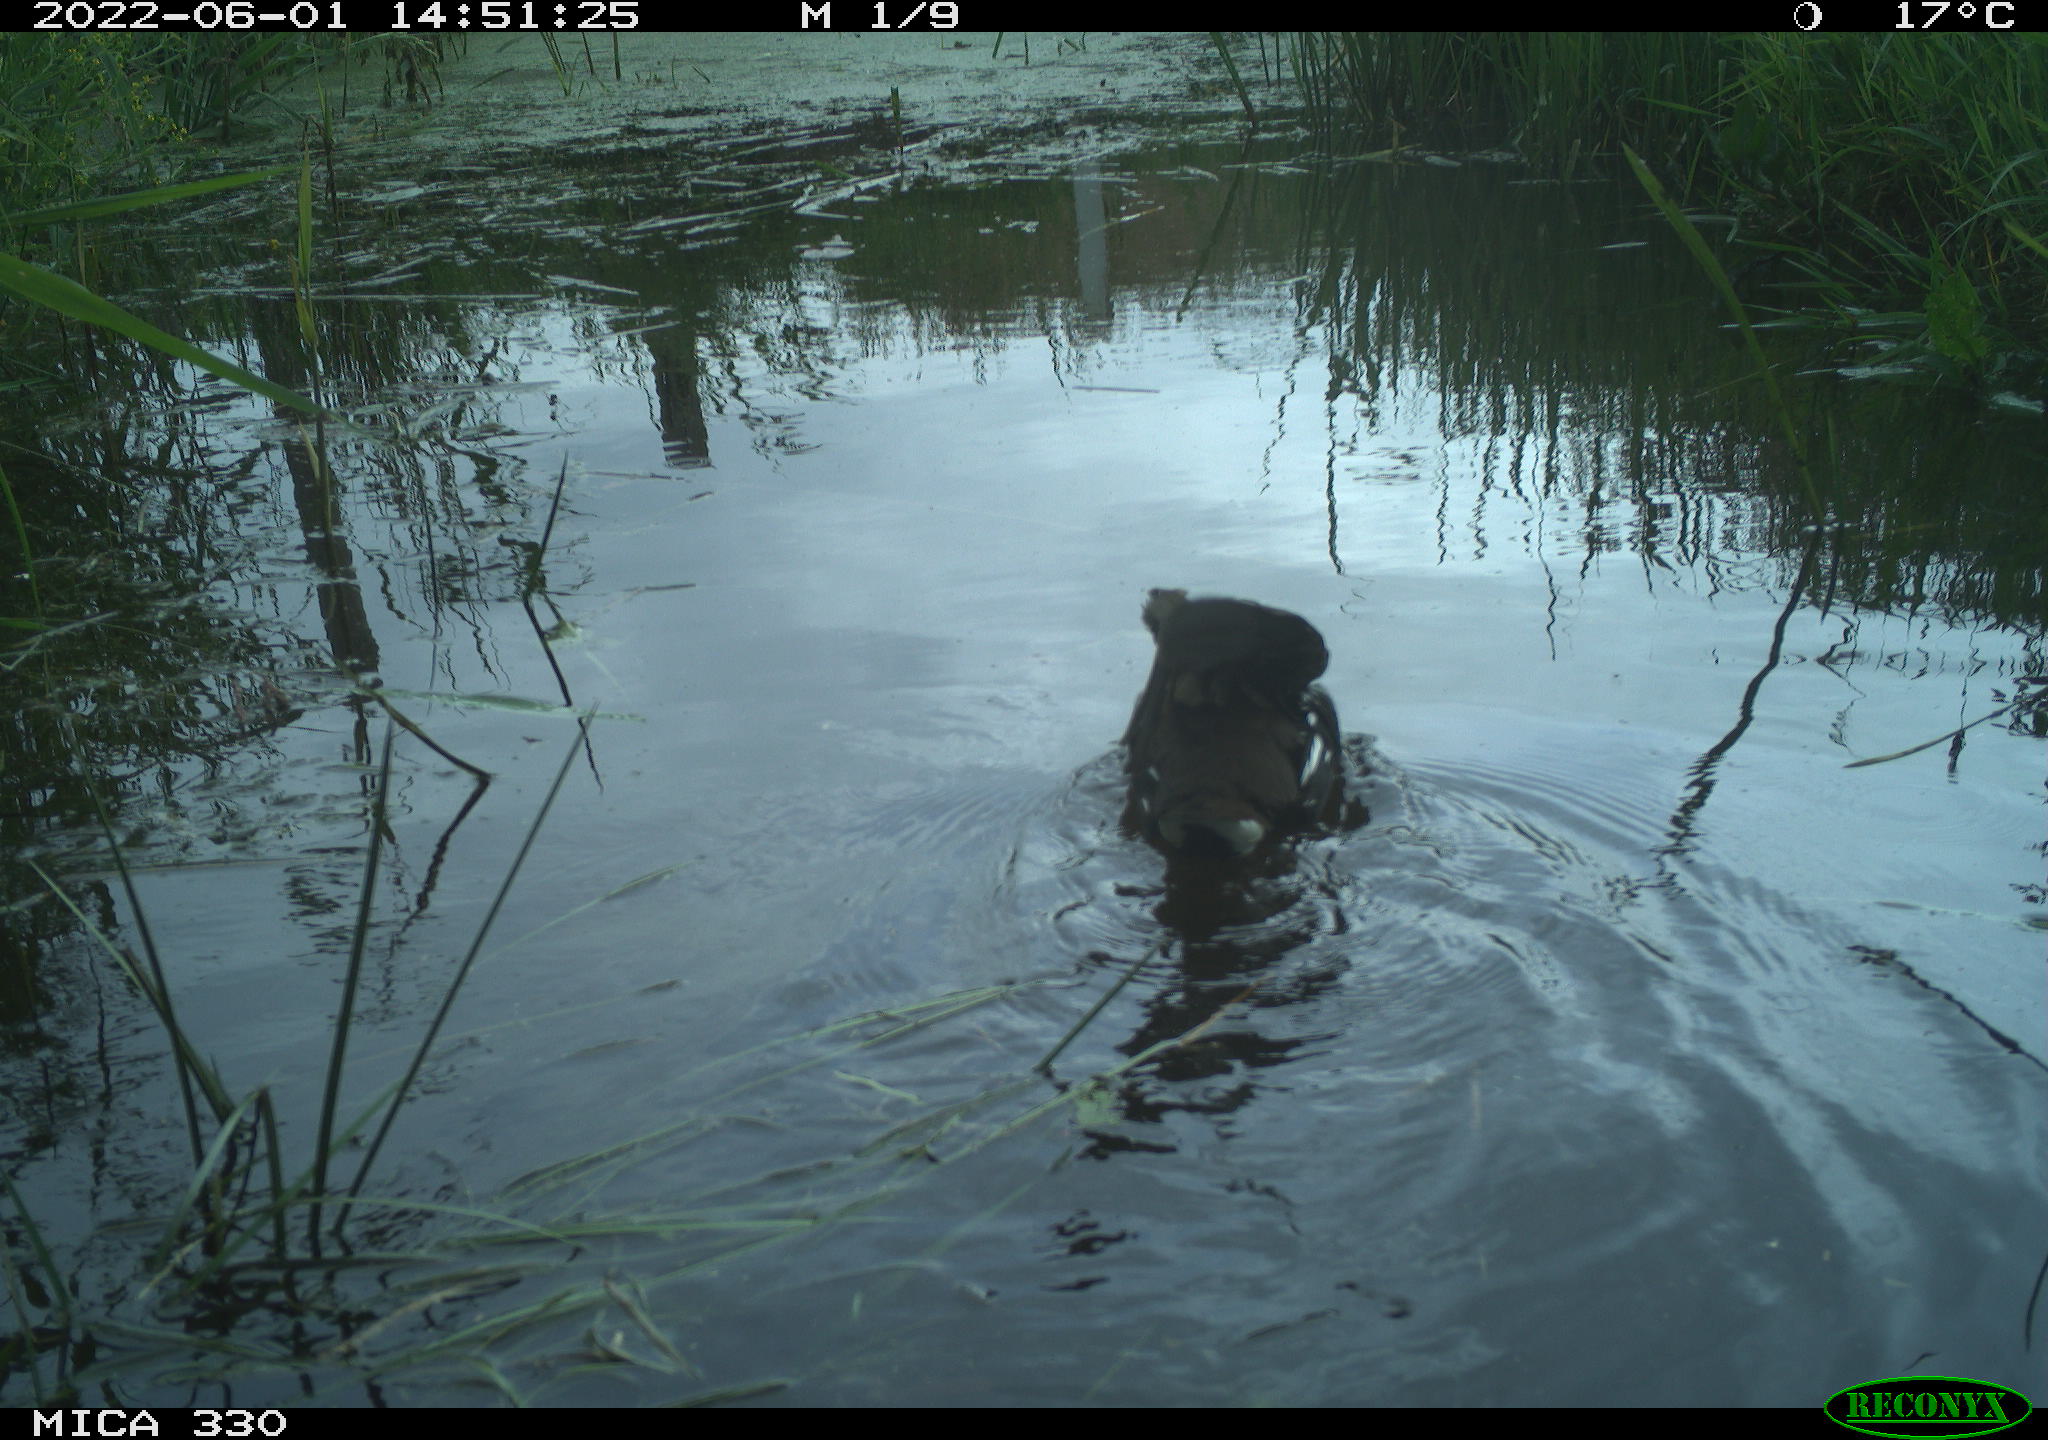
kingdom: Animalia
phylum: Chordata
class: Aves
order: Gruiformes
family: Rallidae
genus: Gallinula
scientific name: Gallinula chloropus
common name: Common moorhen
